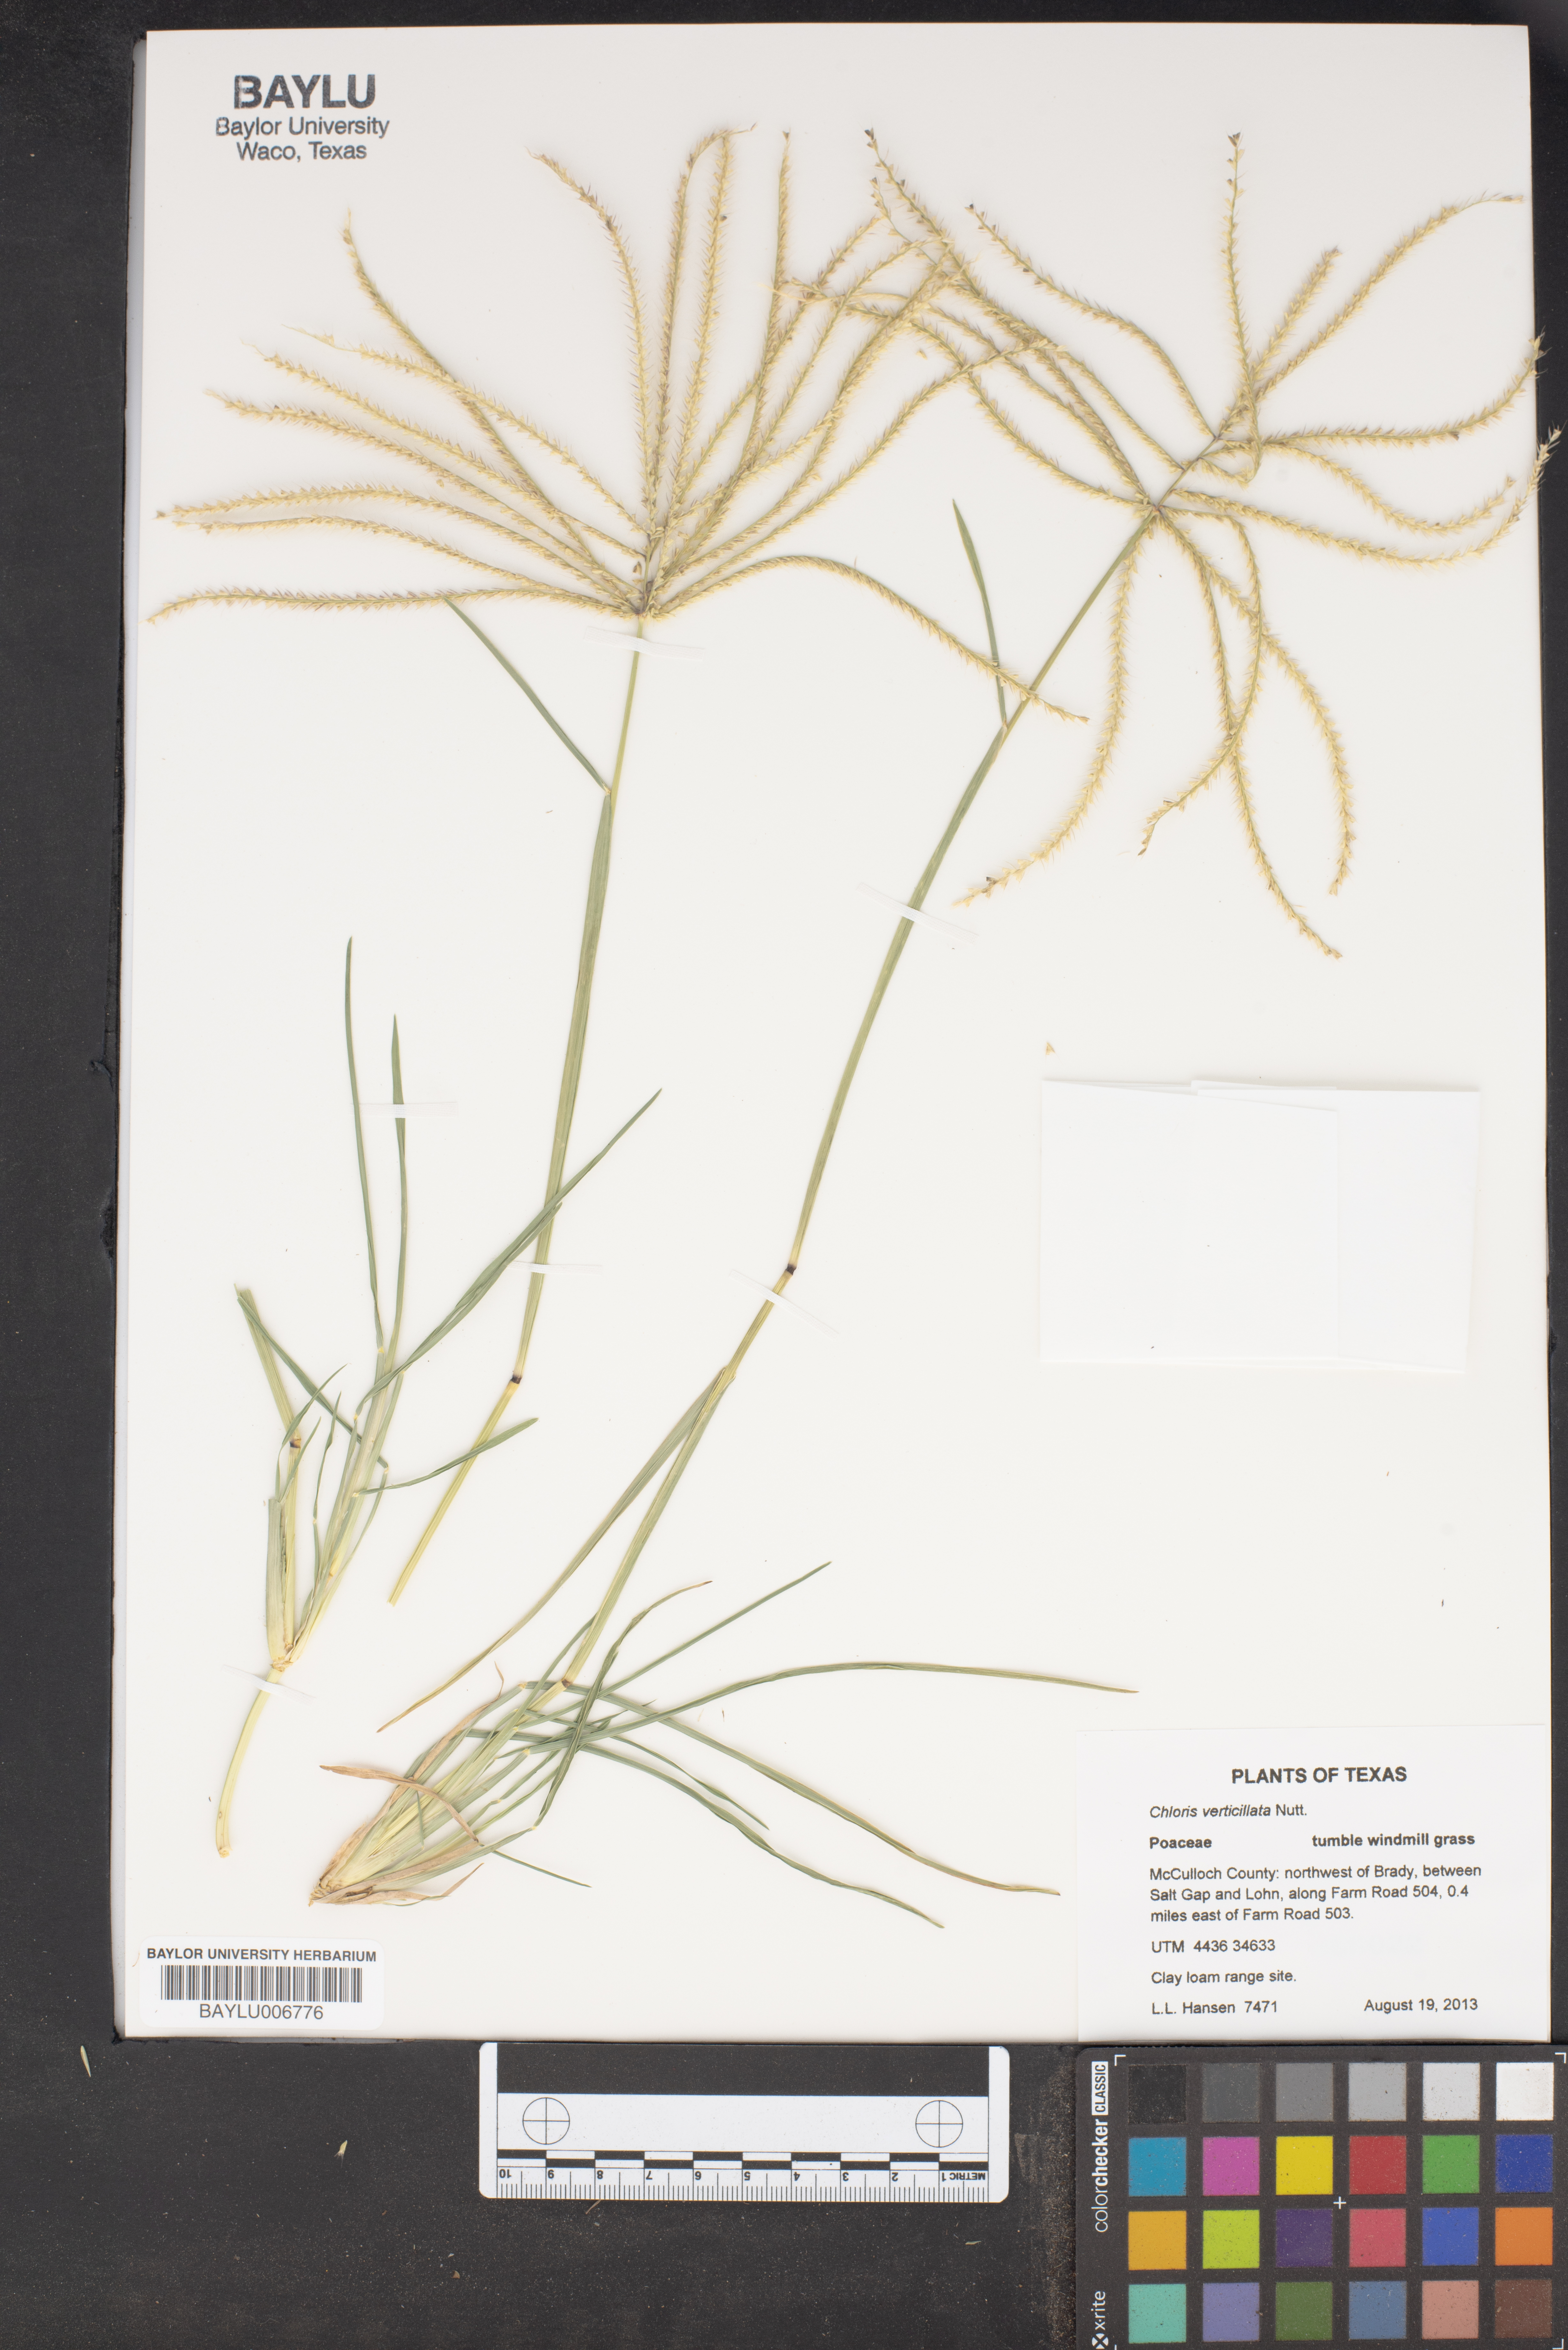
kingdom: Plantae
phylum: Tracheophyta
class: Liliopsida
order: Poales
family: Poaceae
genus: Chloris
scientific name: Chloris verticillata
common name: Tumble windmill grass
